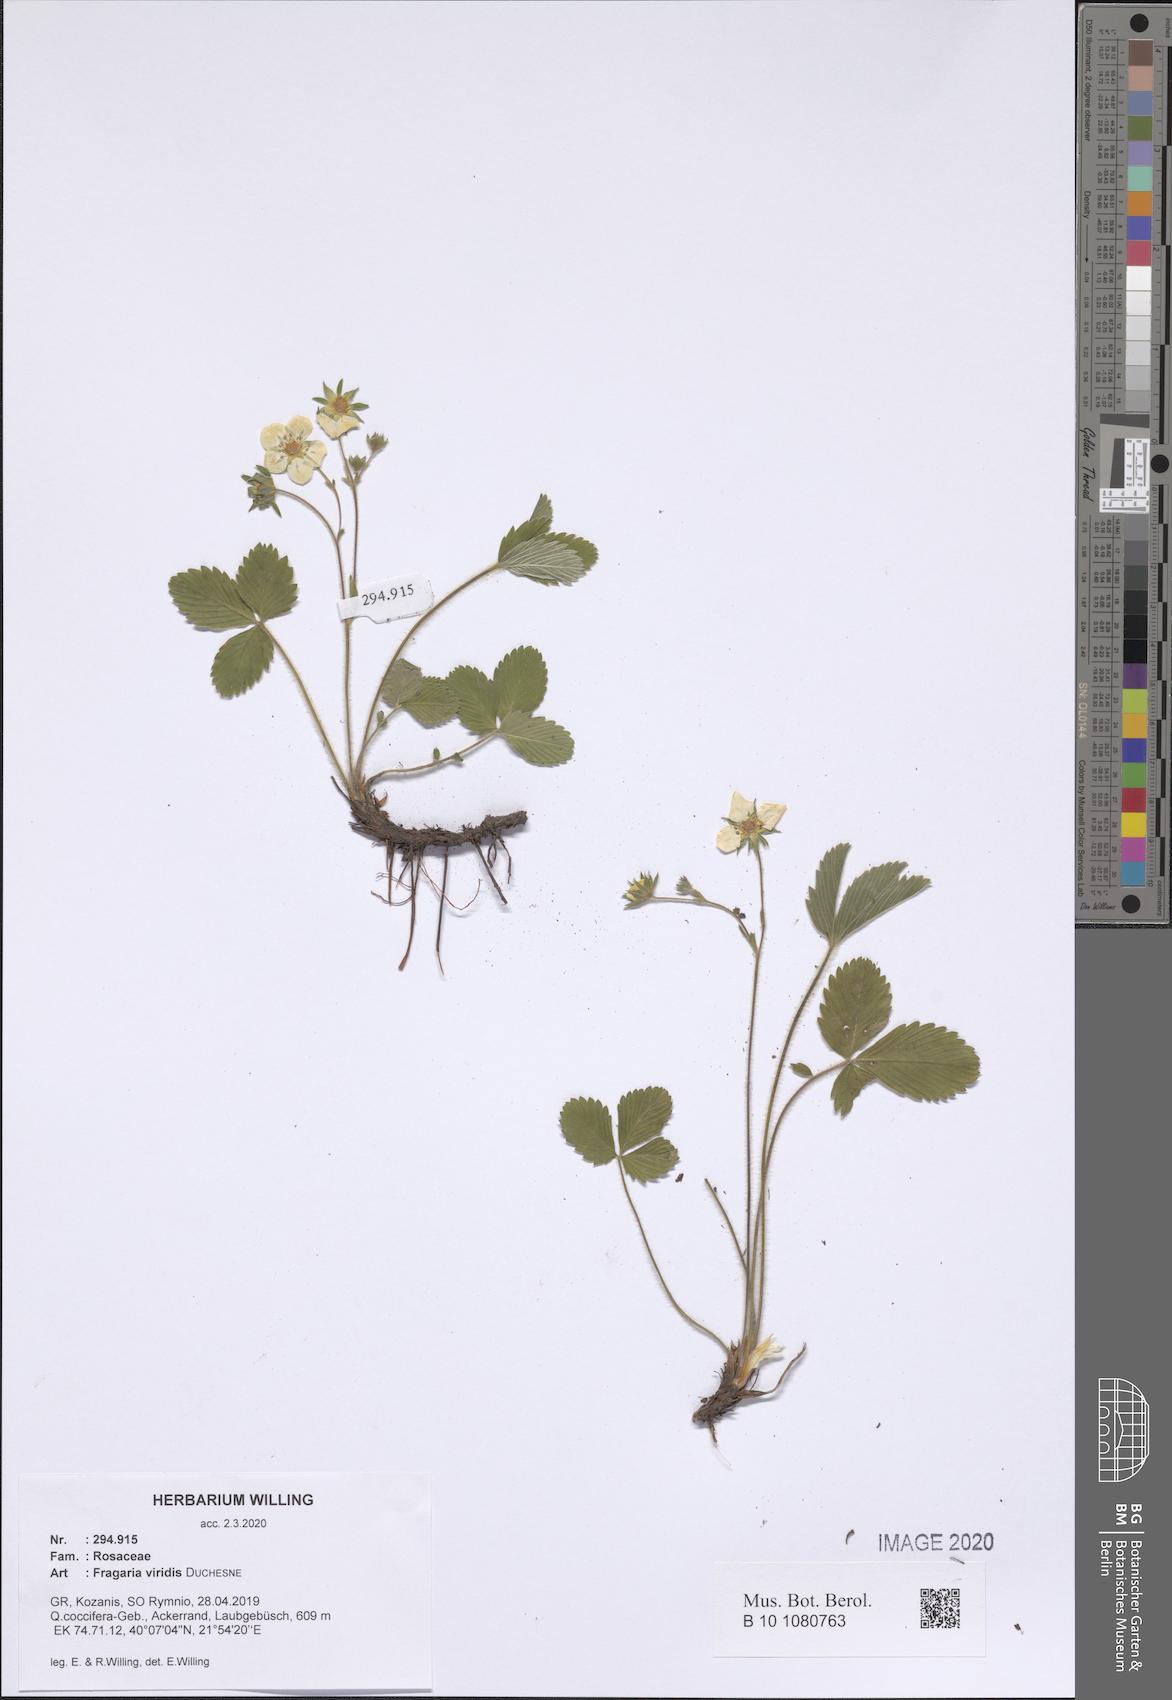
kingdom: Plantae
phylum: Tracheophyta
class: Magnoliopsida
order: Rosales
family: Rosaceae
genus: Fragaria
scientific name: Fragaria viridis
